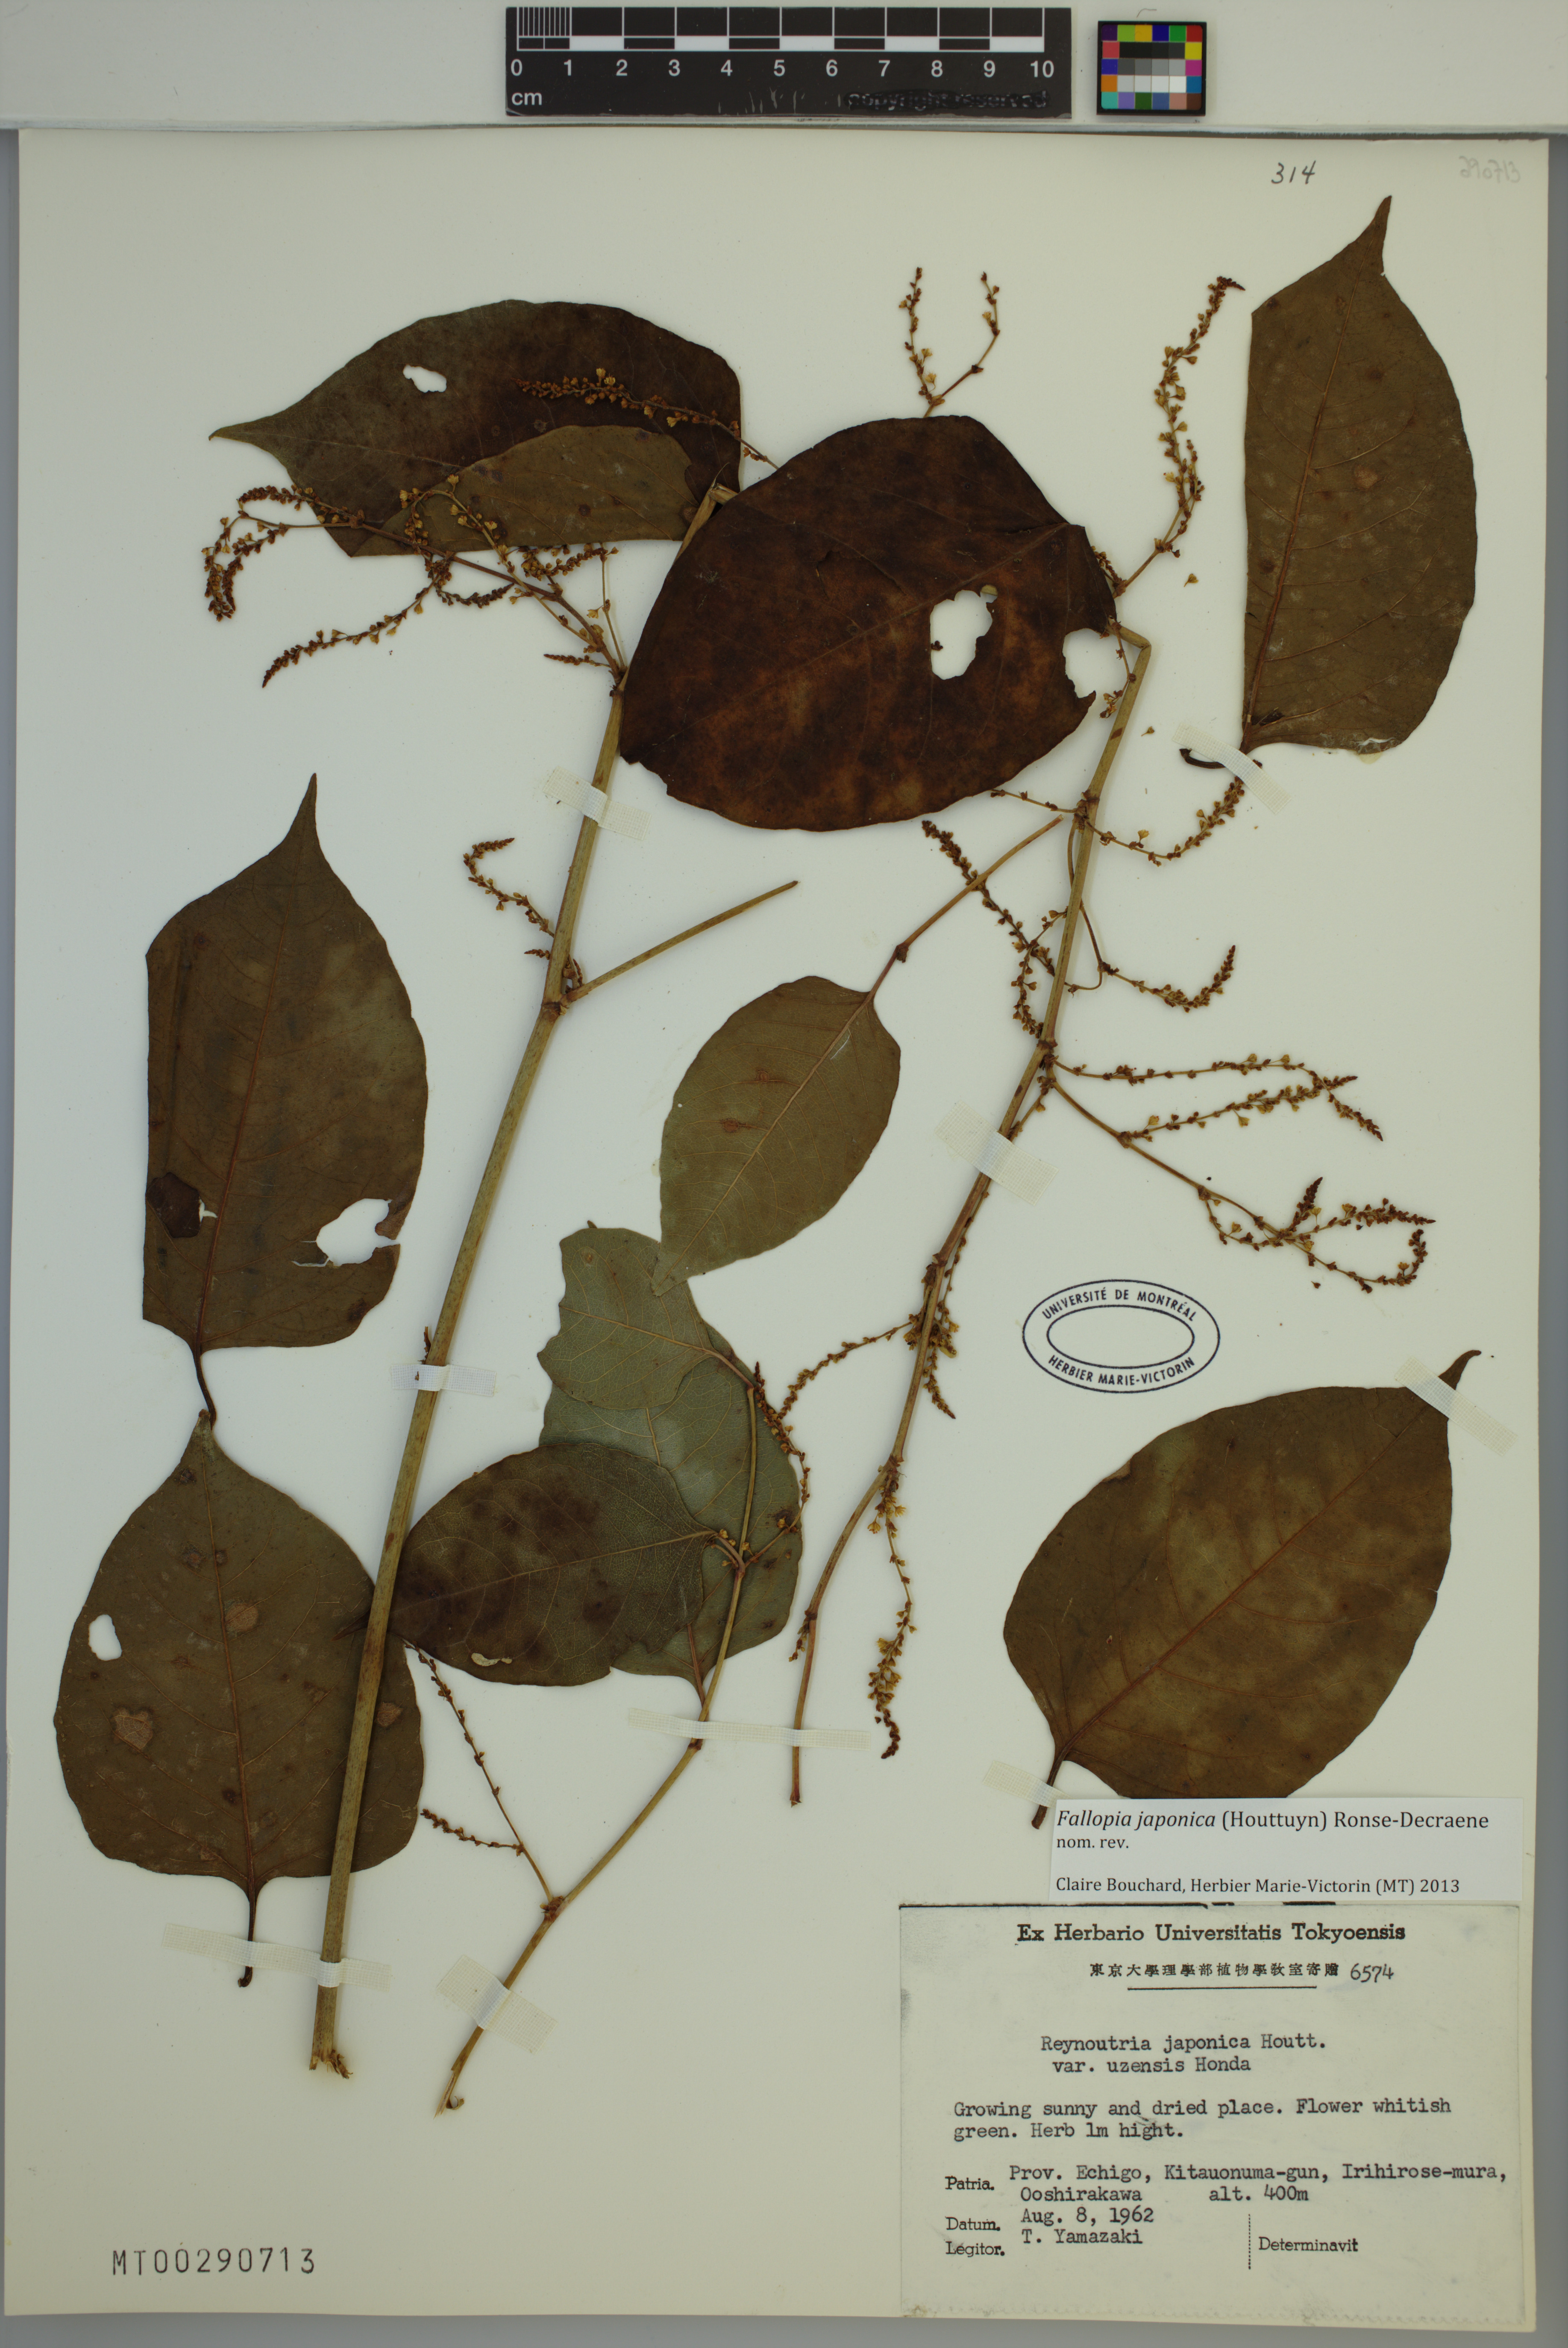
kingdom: Plantae
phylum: Tracheophyta
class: Magnoliopsida
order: Caryophyllales
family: Polygonaceae
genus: Reynoutria
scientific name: Reynoutria japonica
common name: Japanese knotweed
